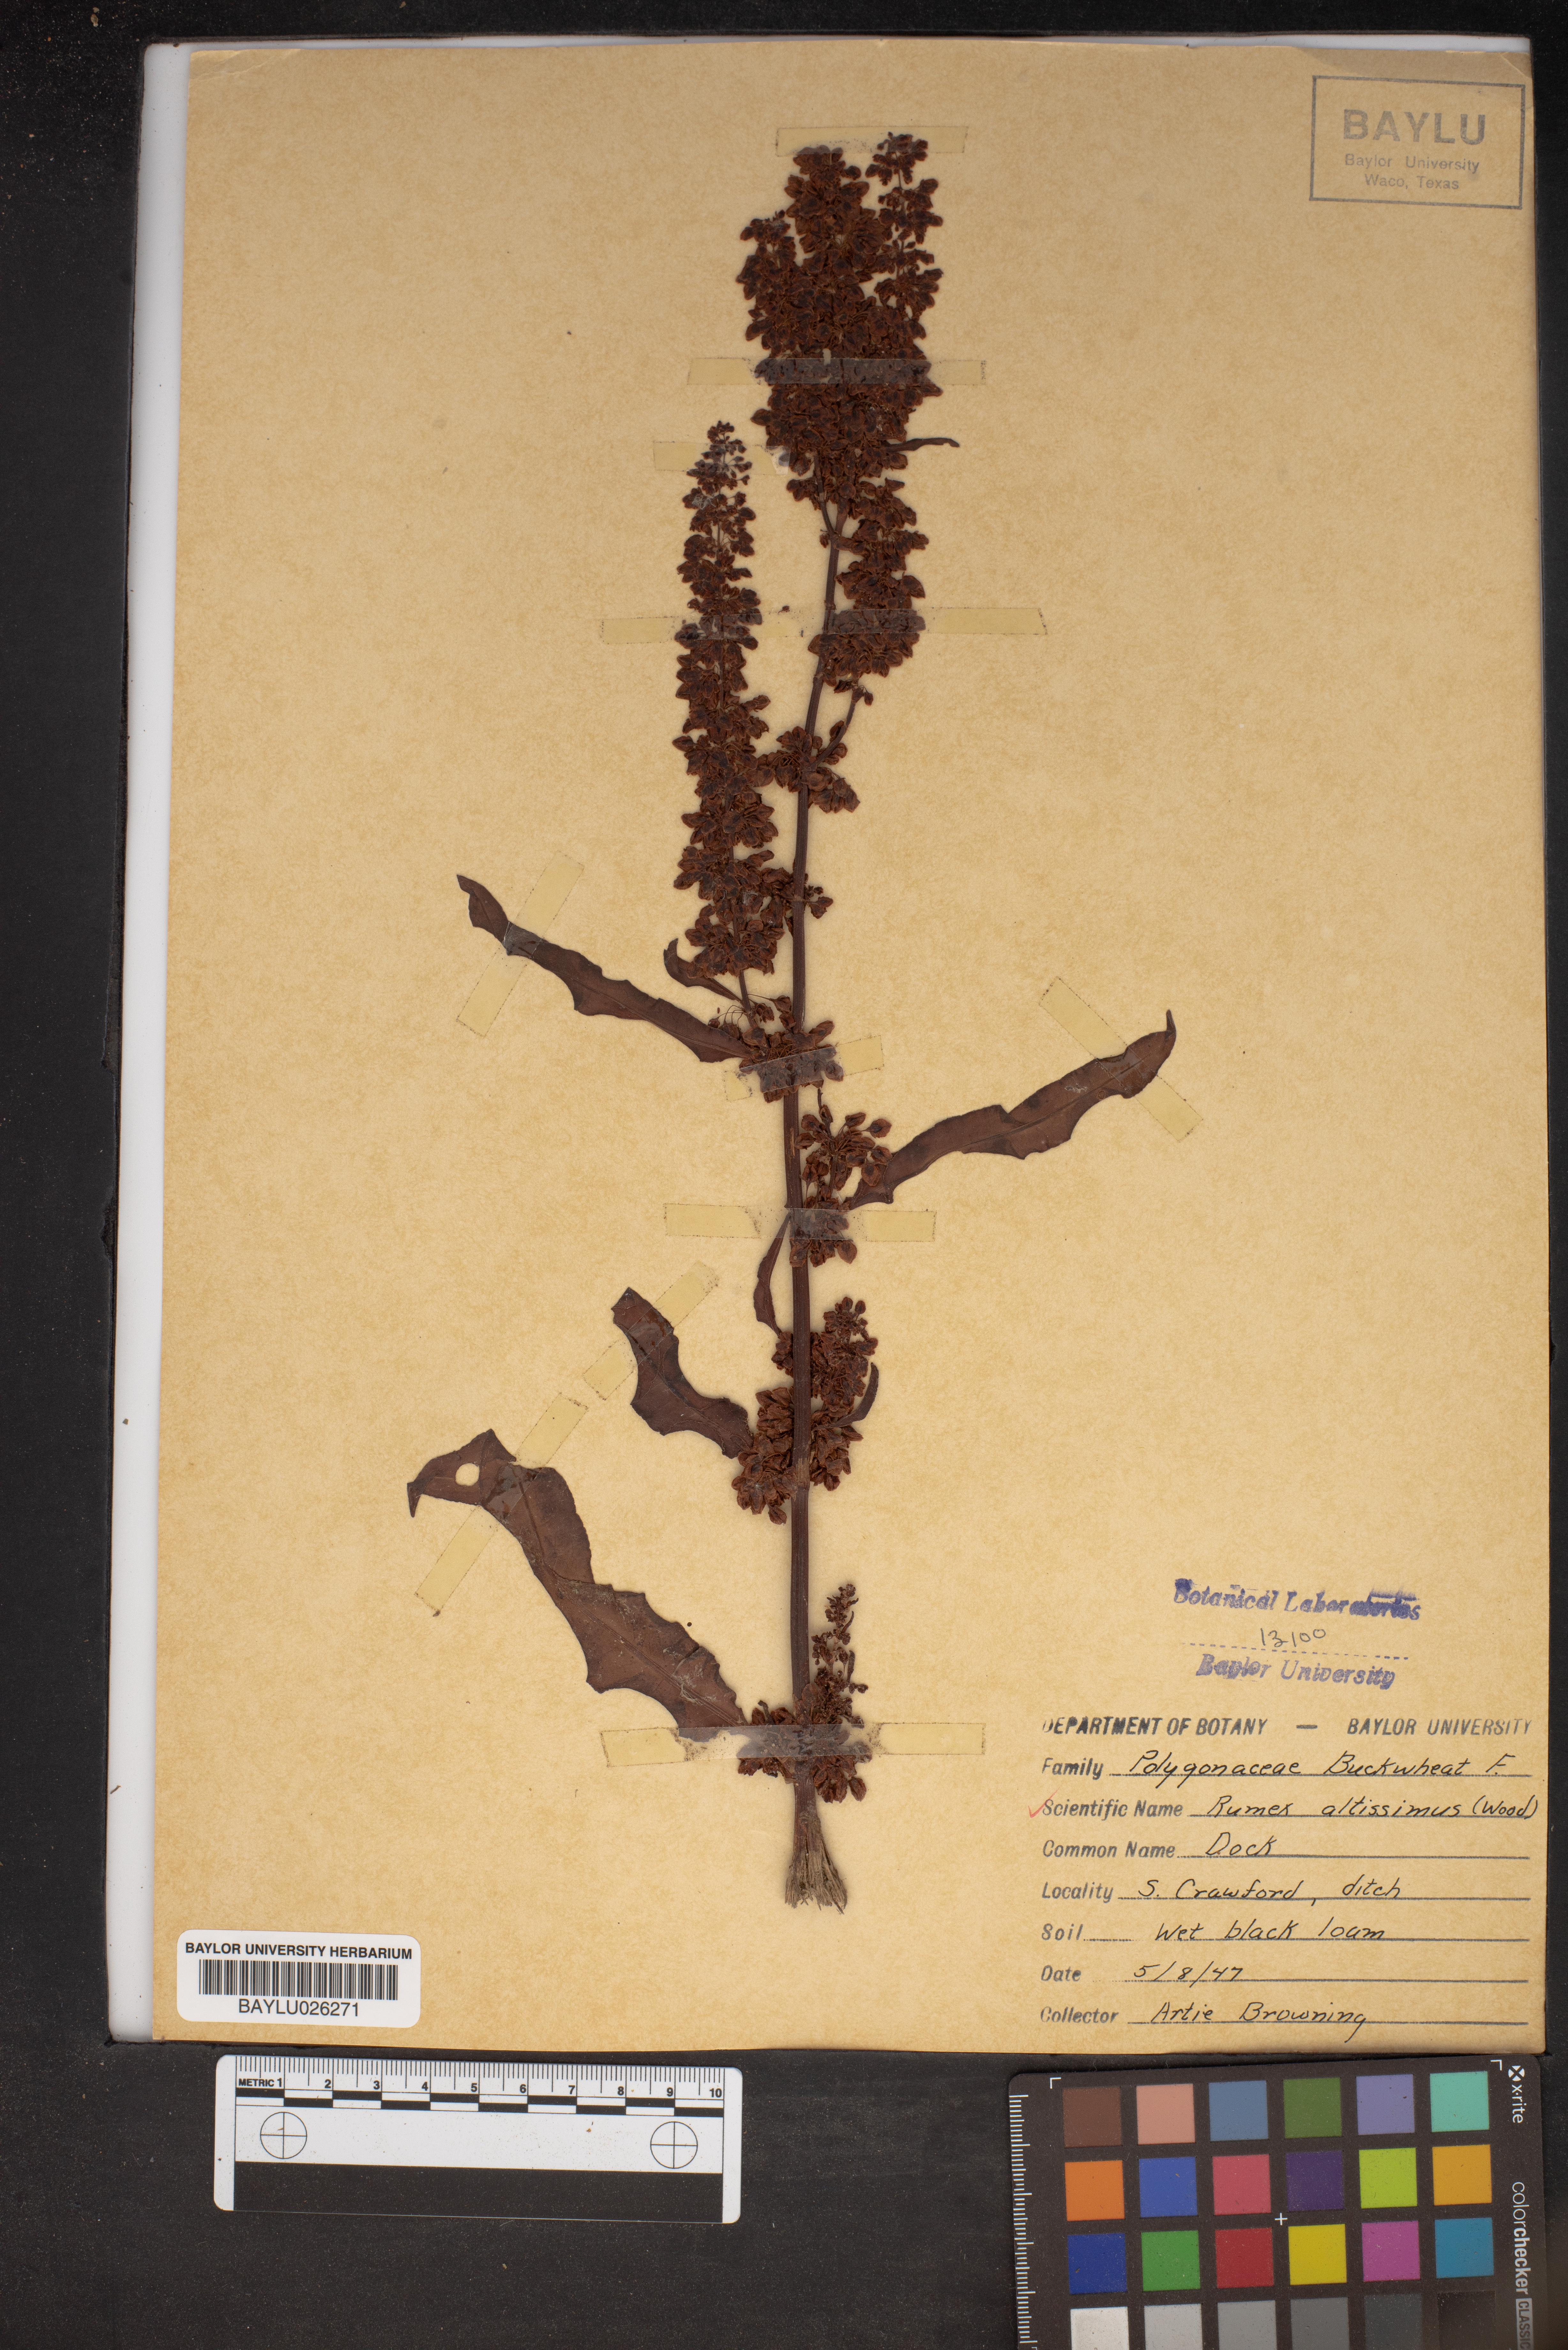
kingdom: Plantae
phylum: Tracheophyta
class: Magnoliopsida
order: Caryophyllales
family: Polygonaceae
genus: Rumex
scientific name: Rumex altissimus
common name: Smooth dock
